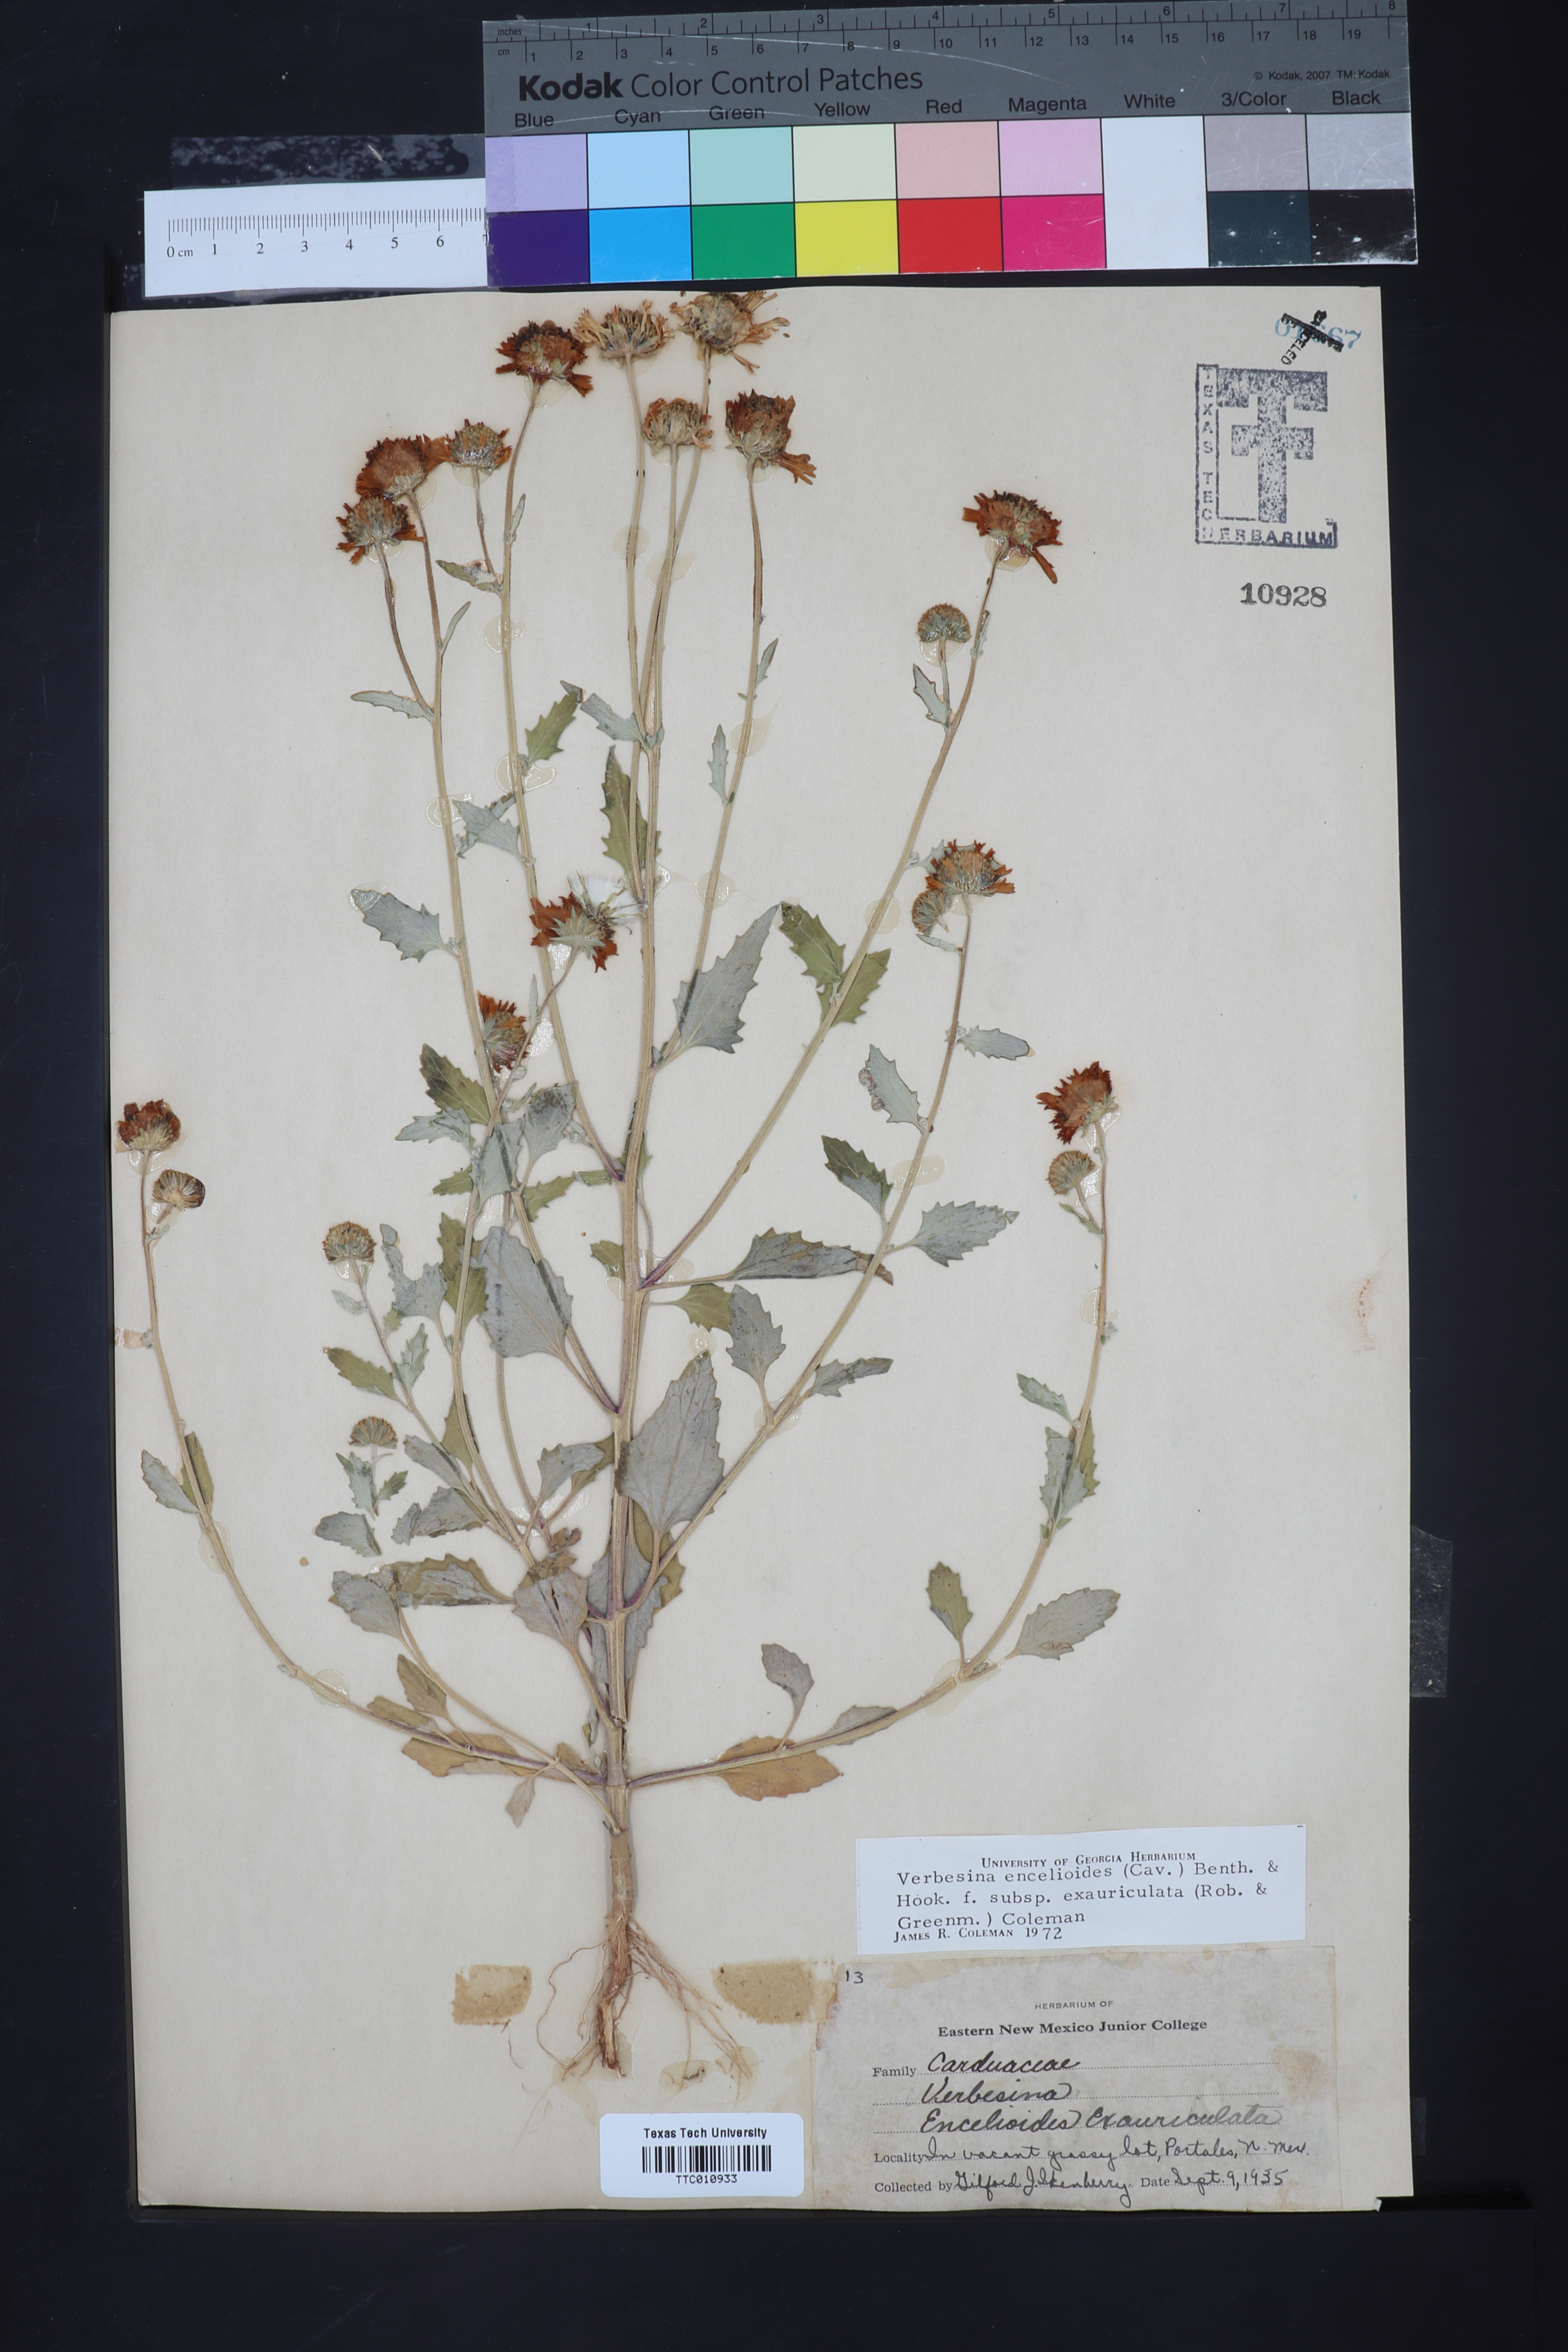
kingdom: Plantae
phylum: Tracheophyta
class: Magnoliopsida
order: Asterales
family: Asteraceae
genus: Verbesina
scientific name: Verbesina encelioides
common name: Golden crownbeard
